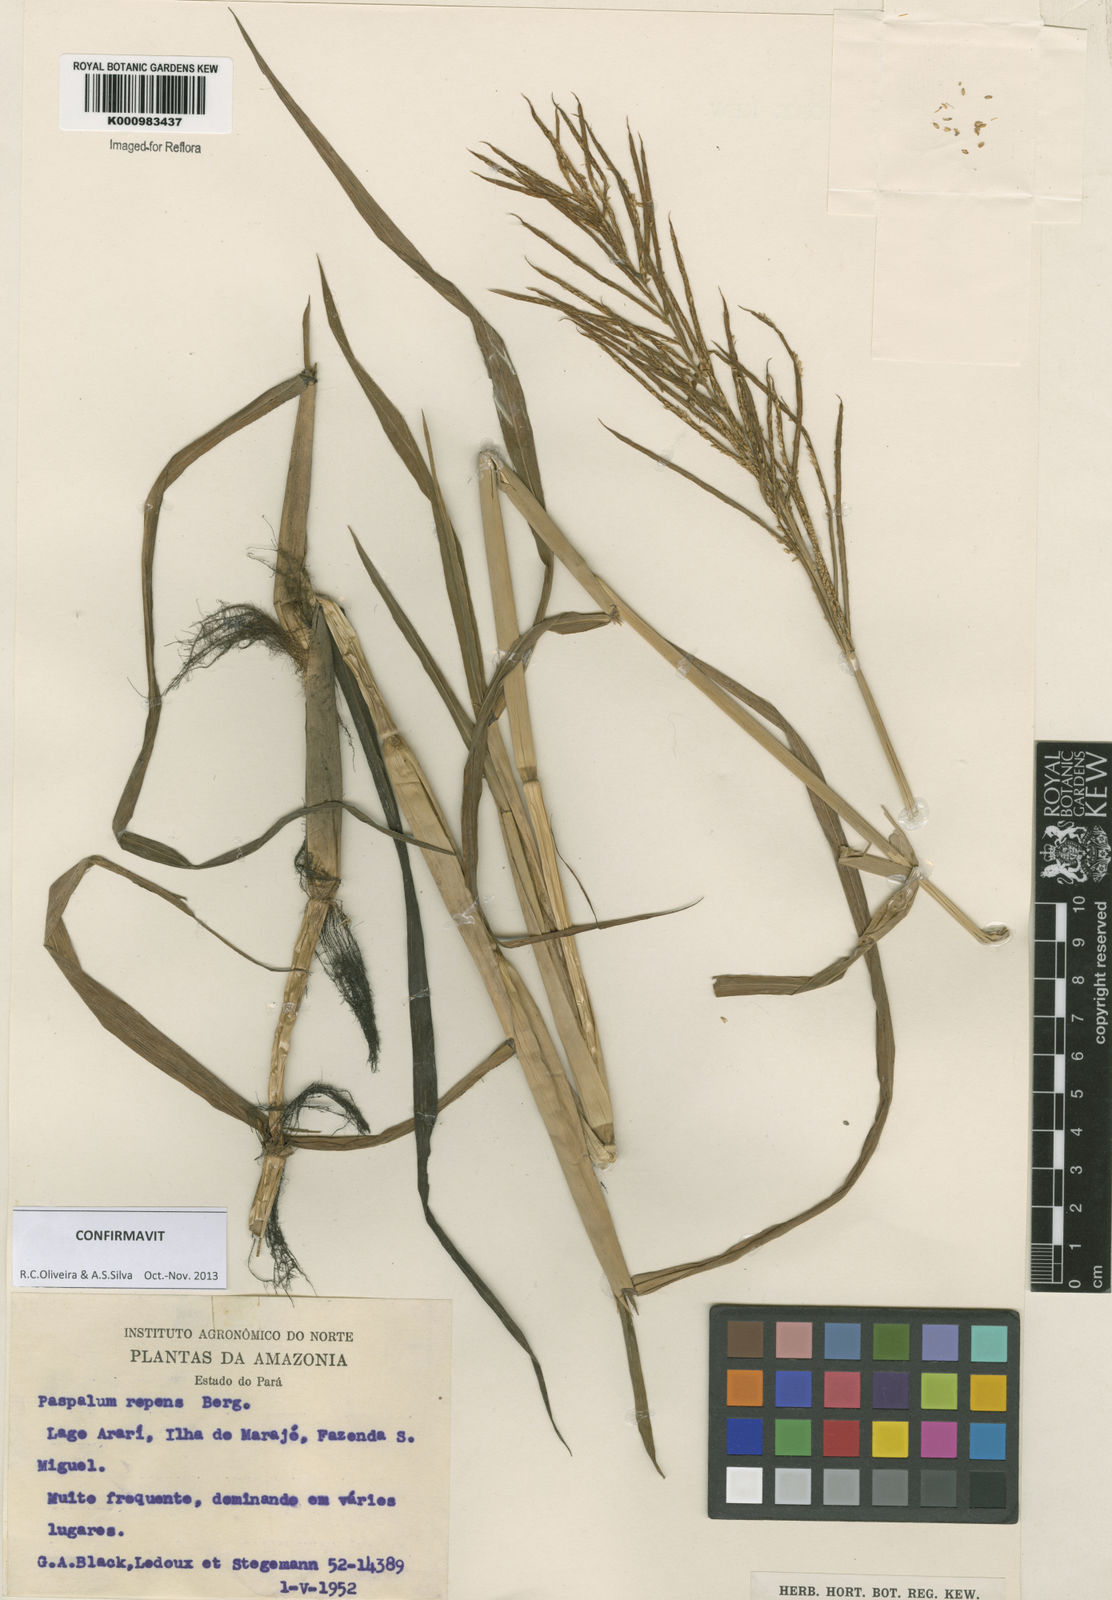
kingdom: Plantae
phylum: Tracheophyta
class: Liliopsida
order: Poales
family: Poaceae
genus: Paspalum
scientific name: Paspalum repens
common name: Water paspalum
